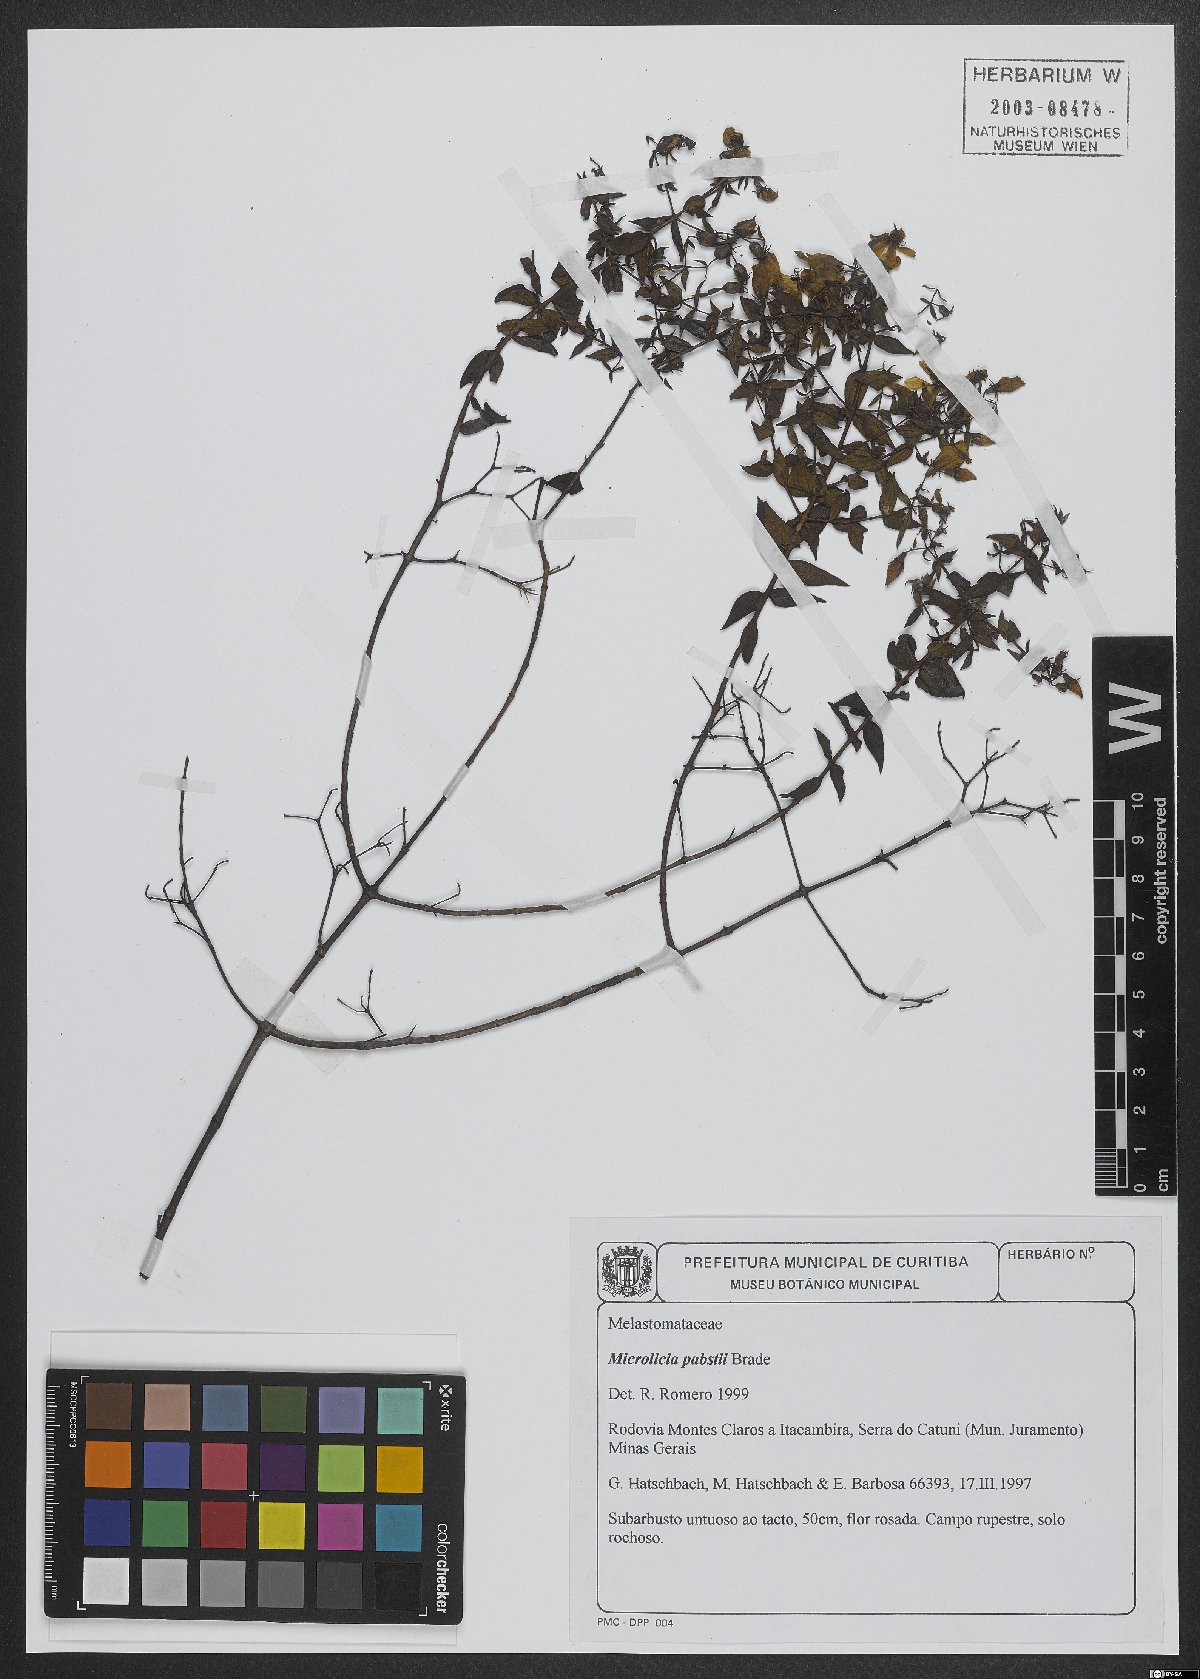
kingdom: Plantae
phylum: Tracheophyta
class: Magnoliopsida
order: Myrtales
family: Melastomataceae
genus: Microlicia
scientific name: Microlicia pabstii
